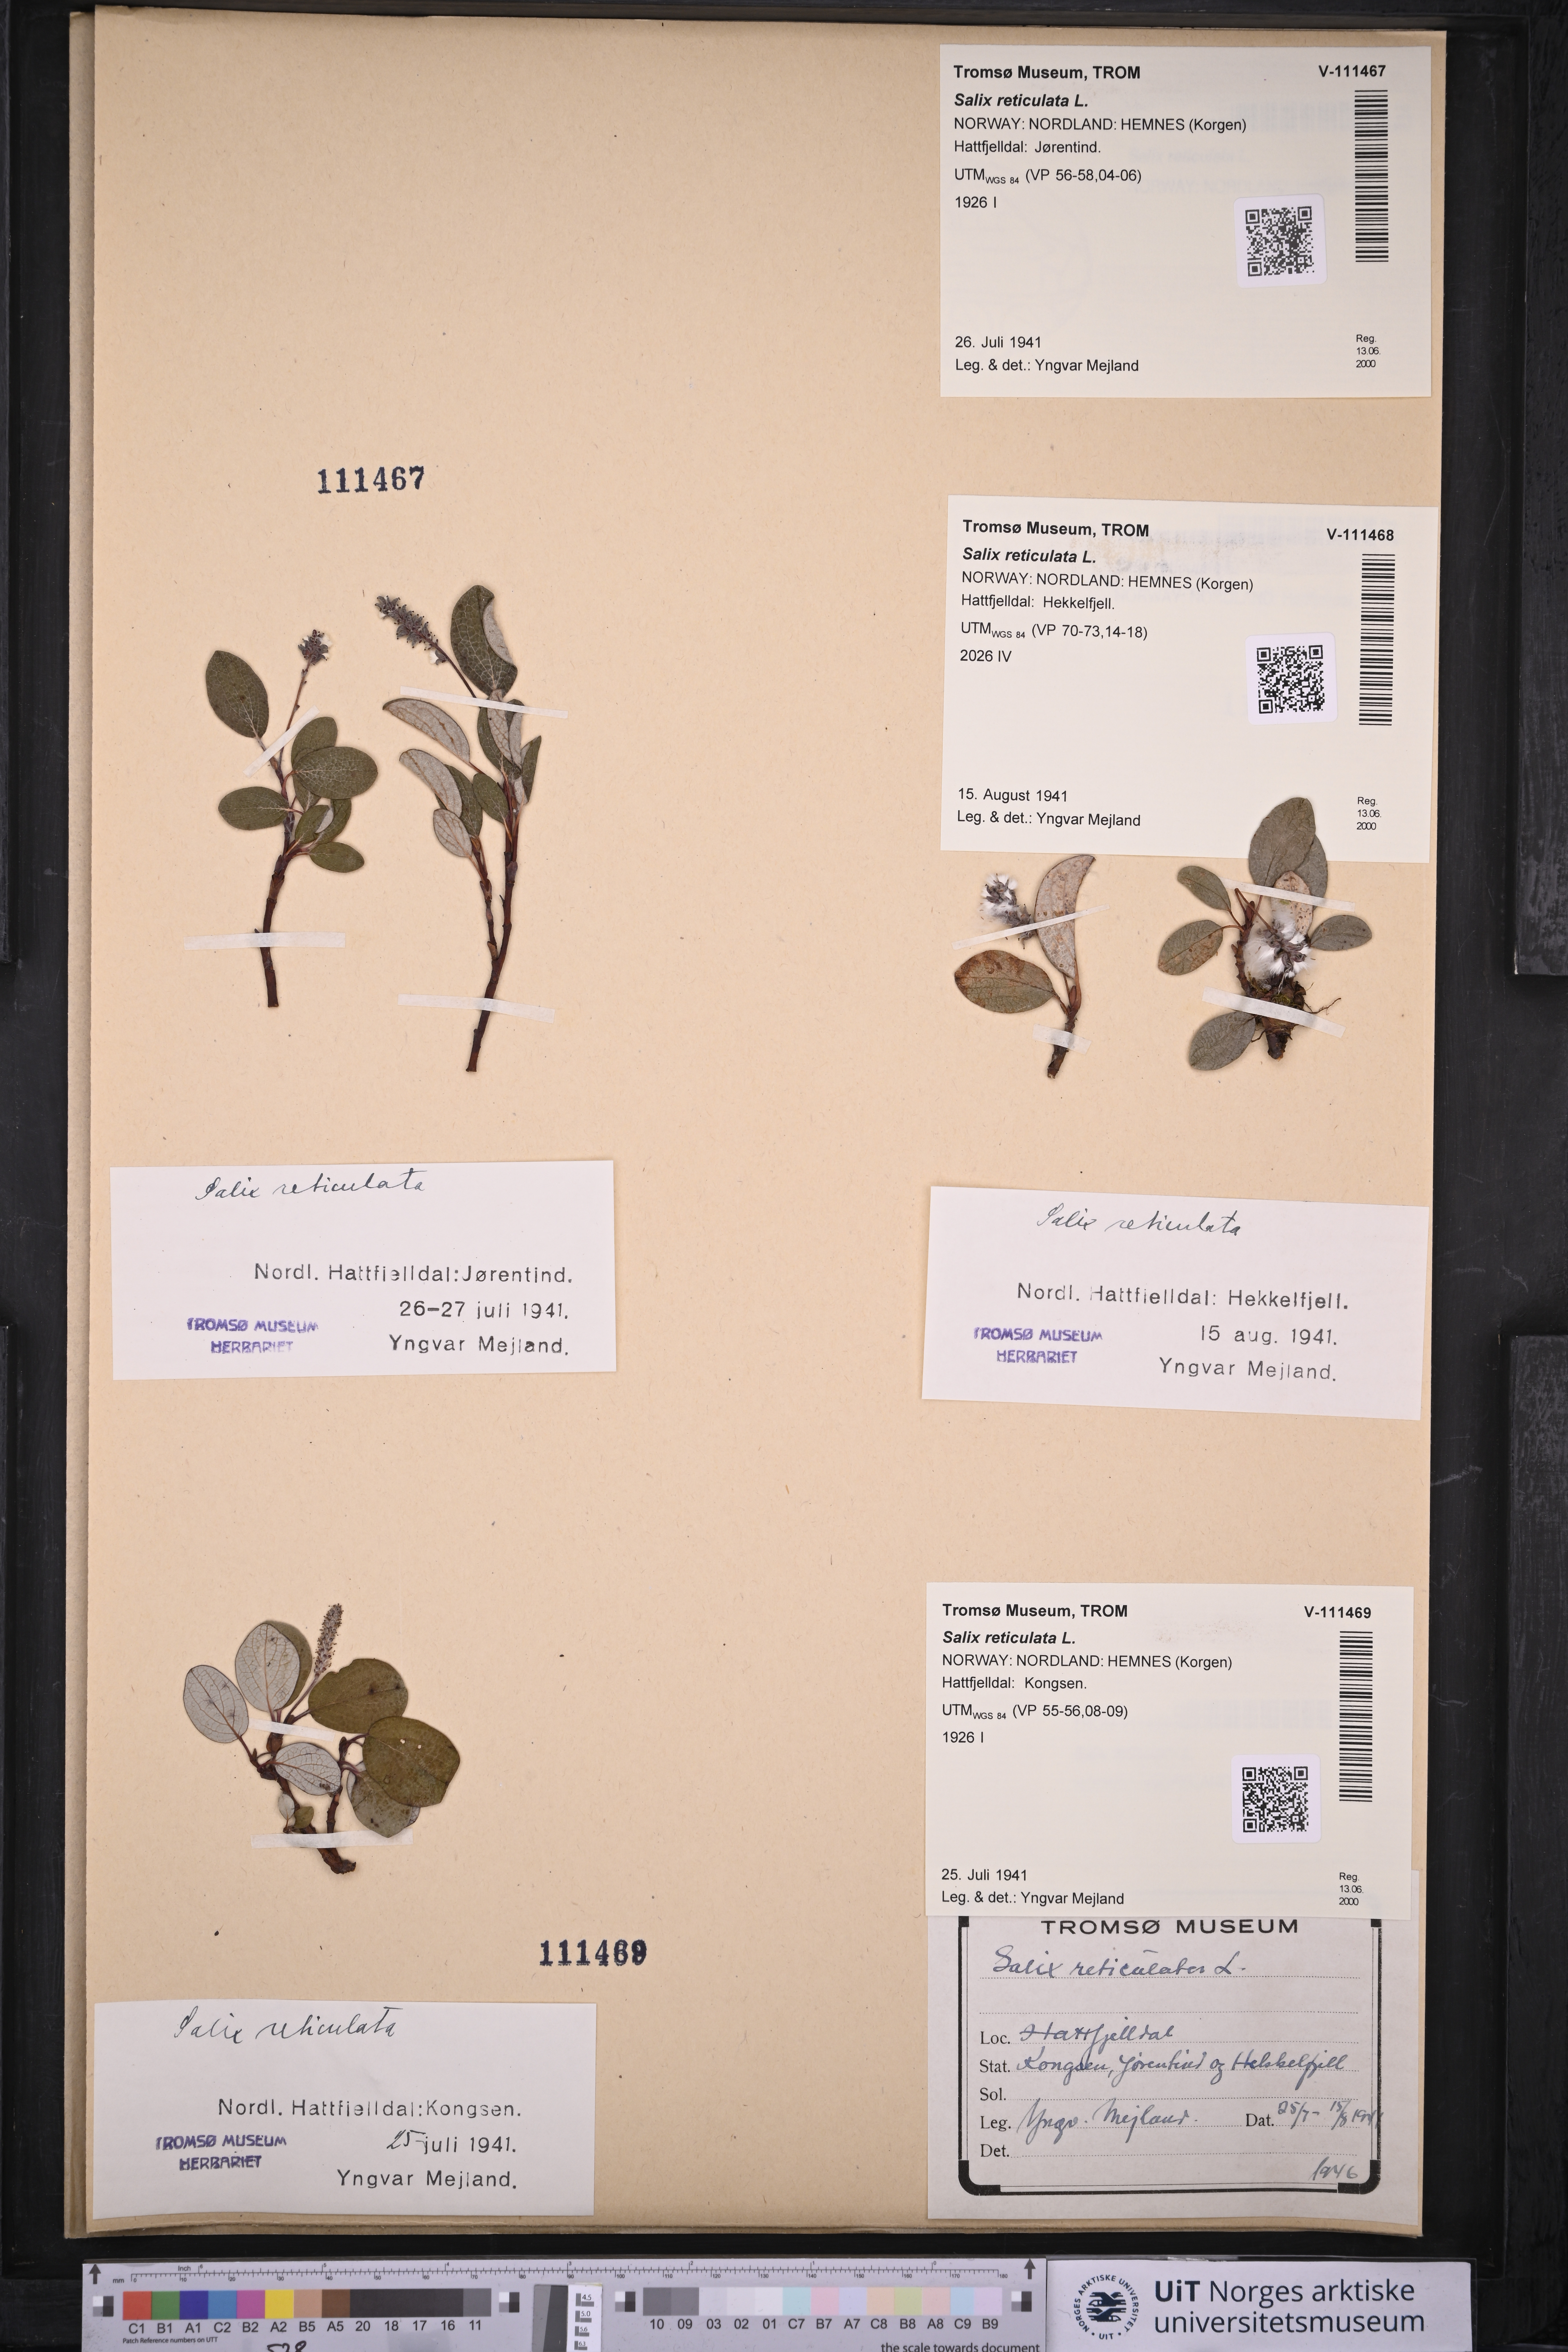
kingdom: Plantae
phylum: Tracheophyta
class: Magnoliopsida
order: Malpighiales
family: Salicaceae
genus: Salix
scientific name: Salix reticulata
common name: Net-leaved willow
